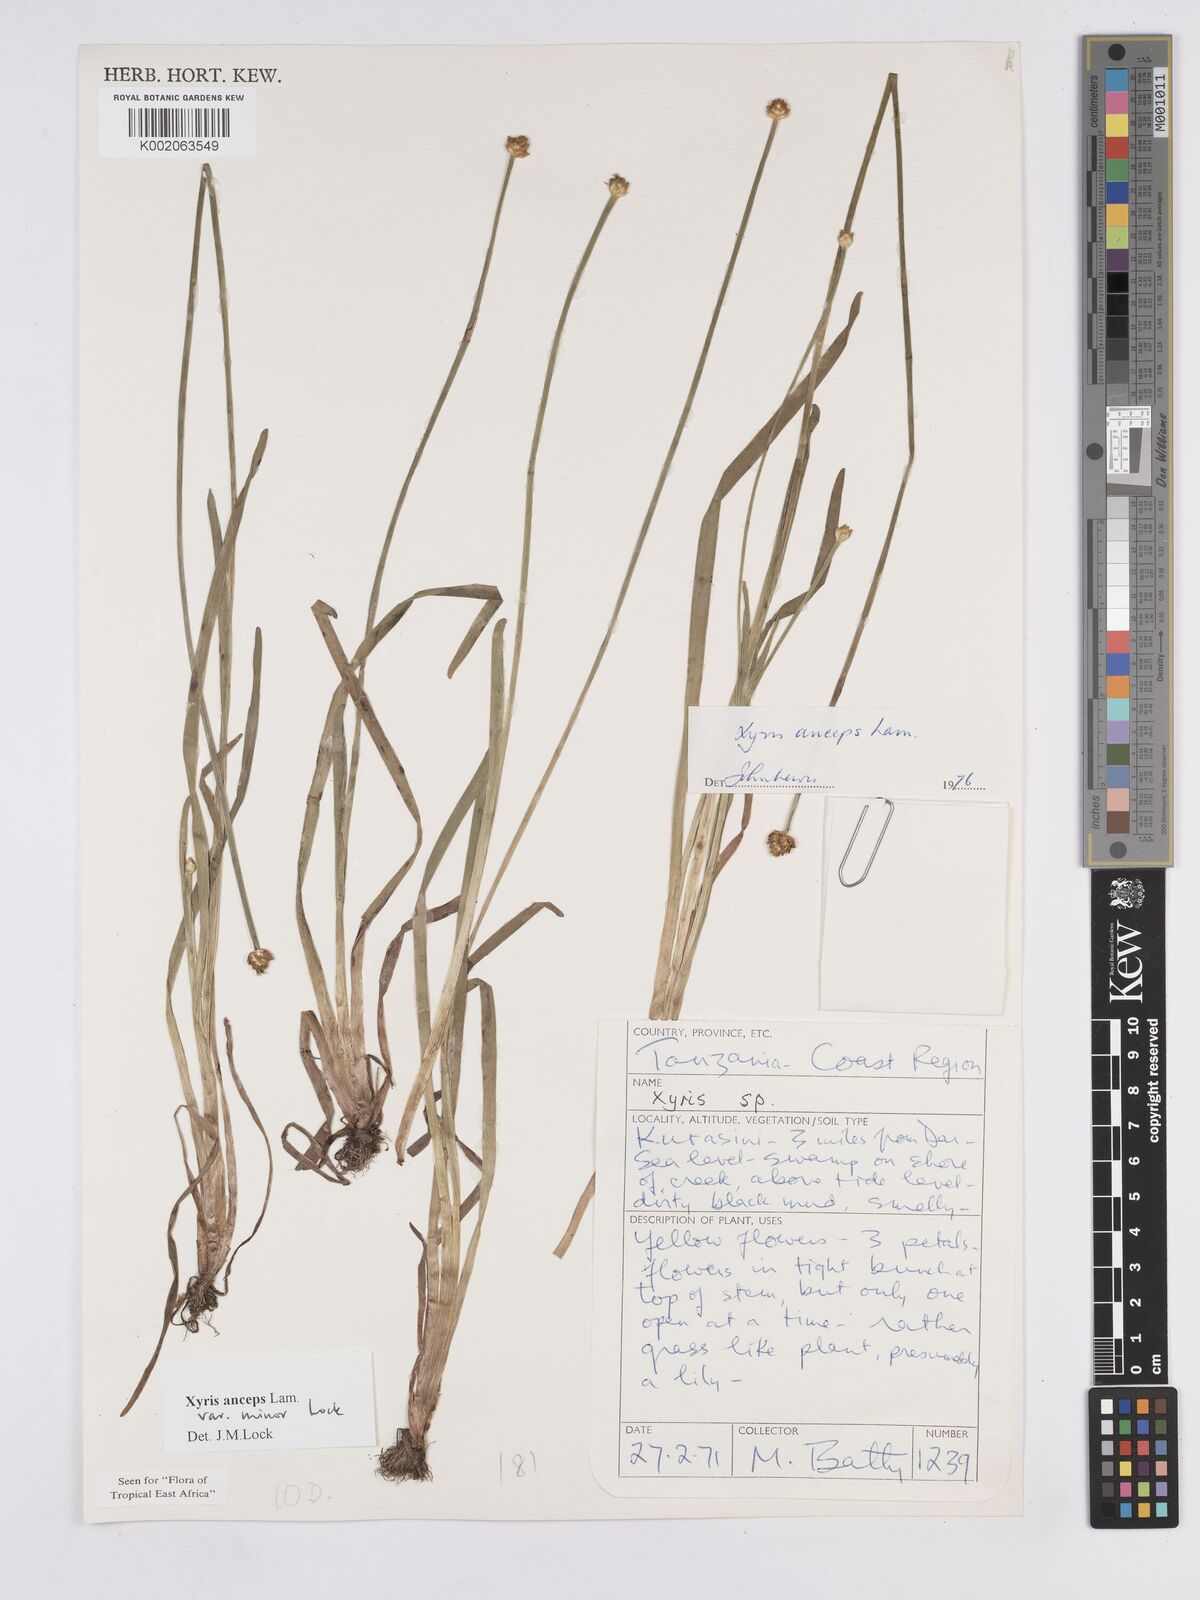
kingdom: Plantae
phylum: Tracheophyta
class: Liliopsida
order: Poales
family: Xyridaceae
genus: Xyris
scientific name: Xyris anceps
